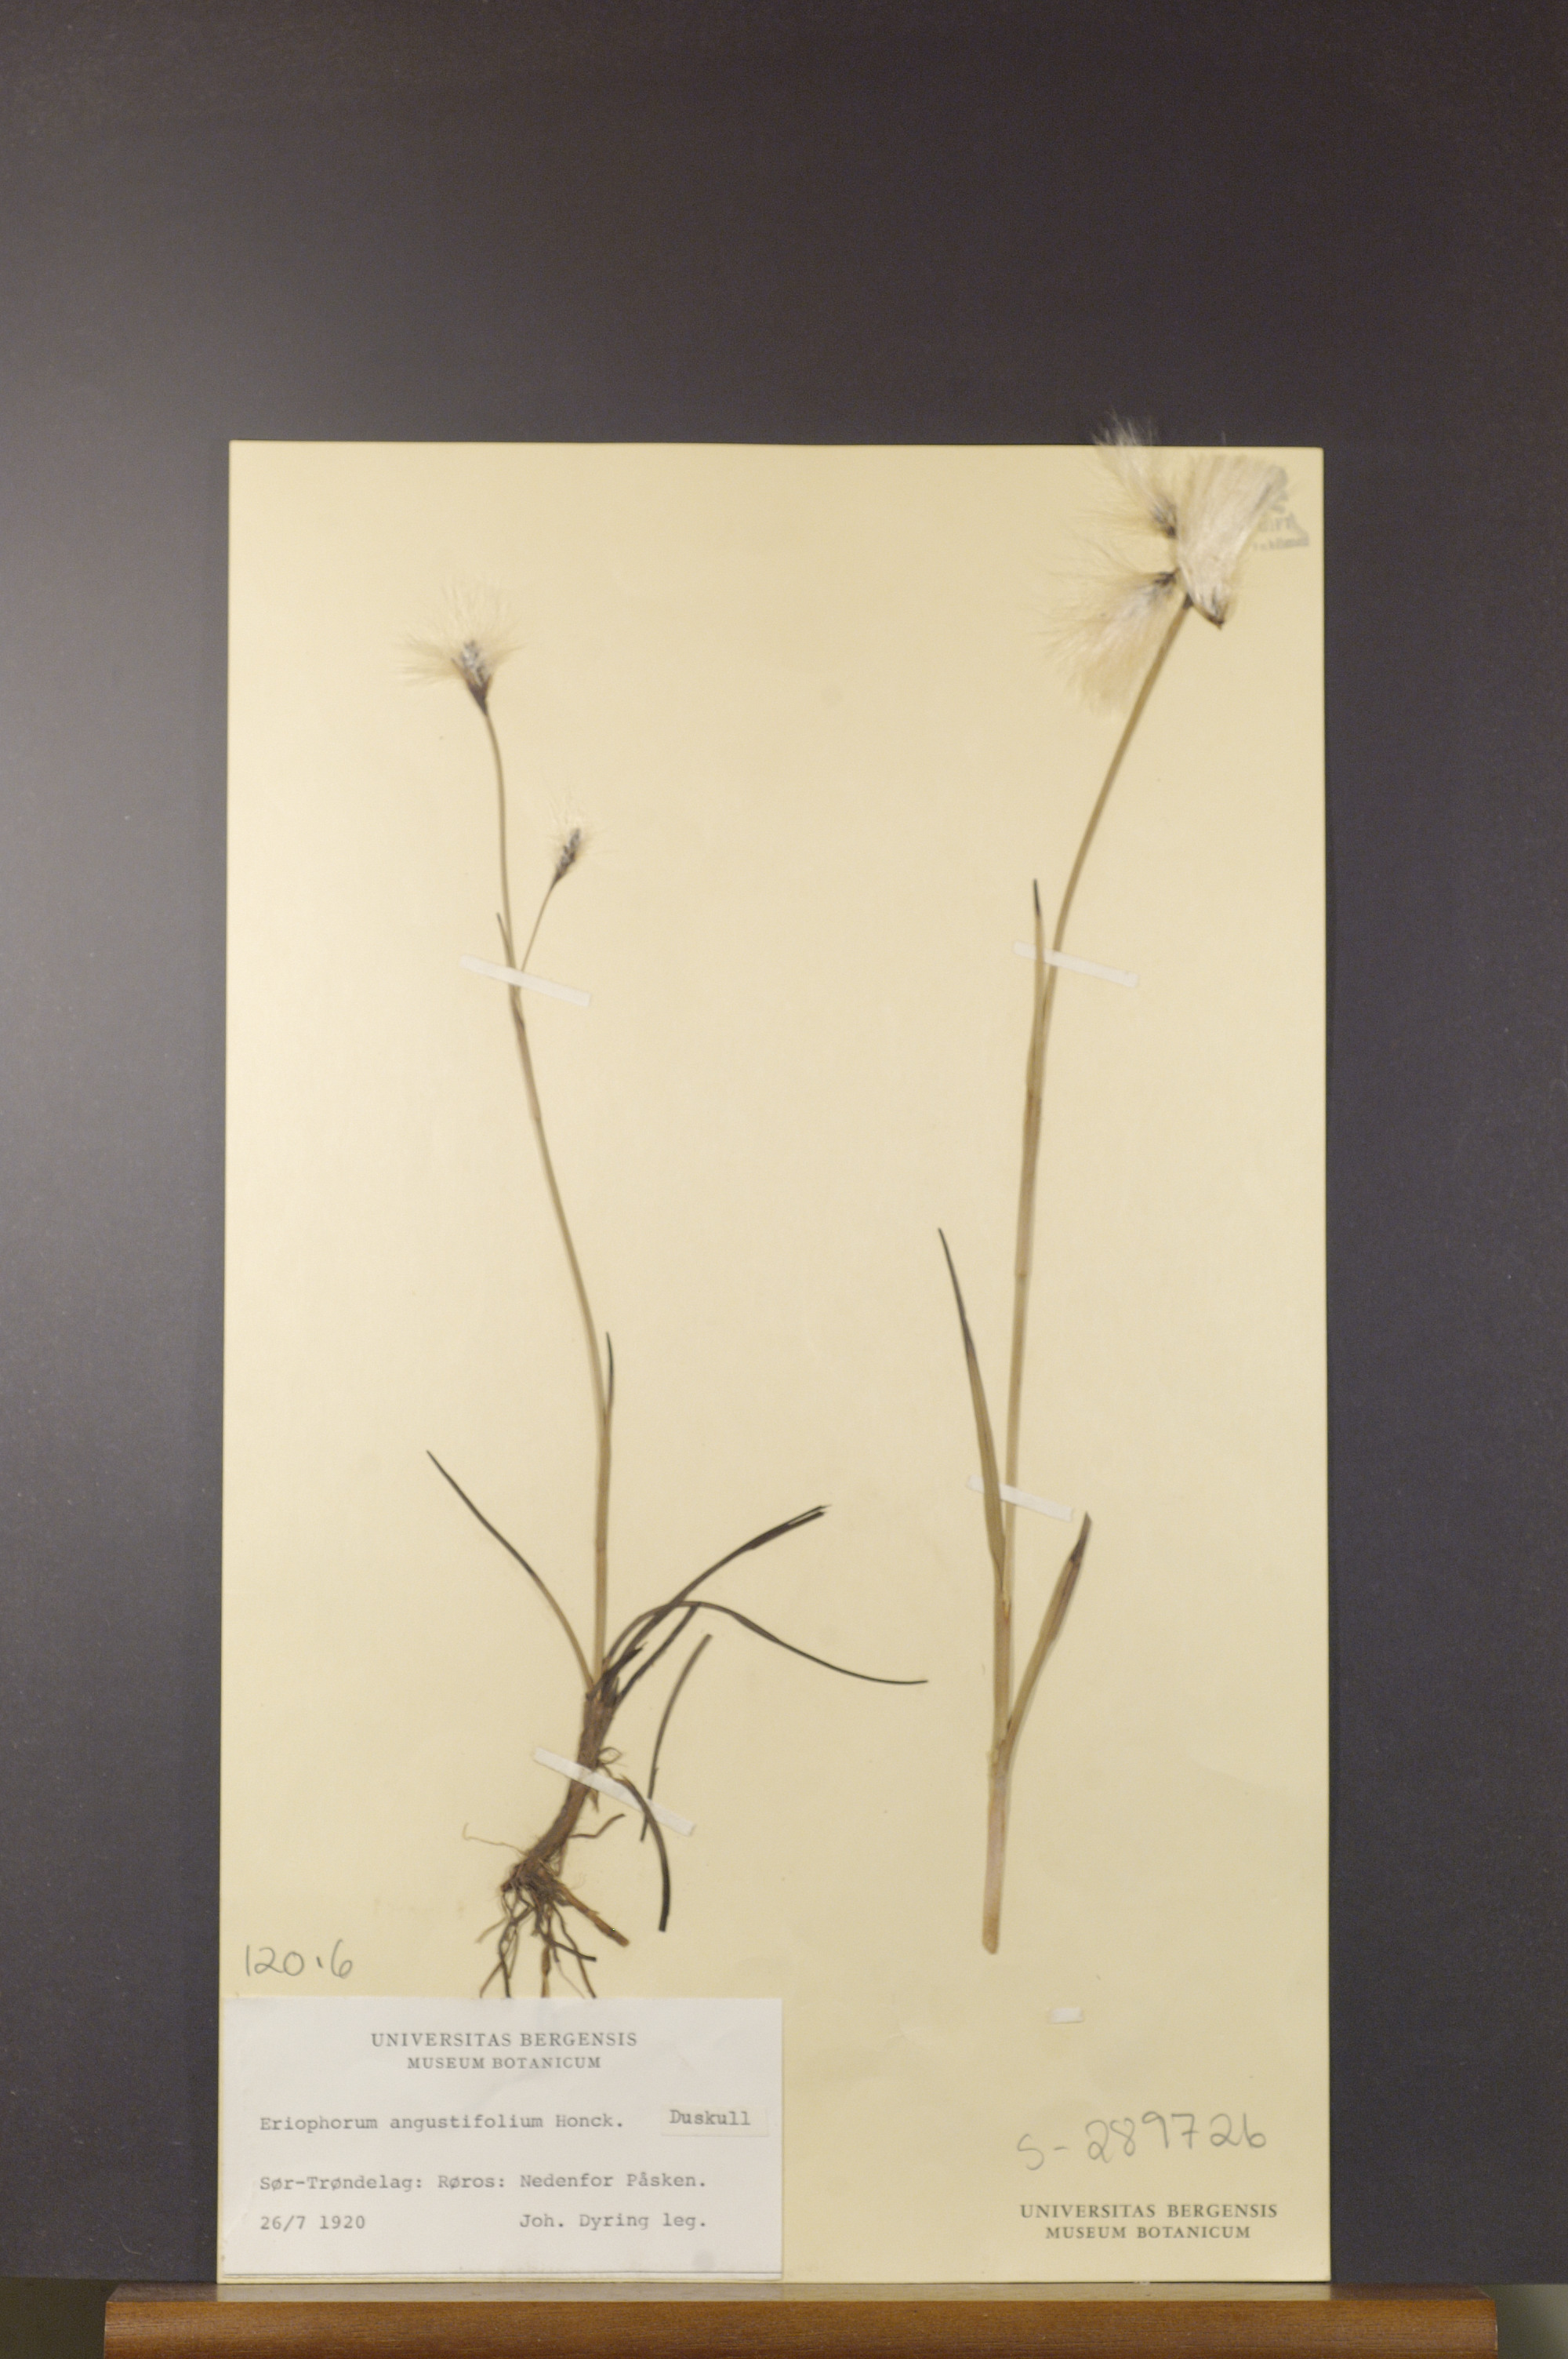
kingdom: Plantae
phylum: Tracheophyta
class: Liliopsida
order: Poales
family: Cyperaceae
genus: Eriophorum
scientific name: Eriophorum angustifolium
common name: Common cottongrass
